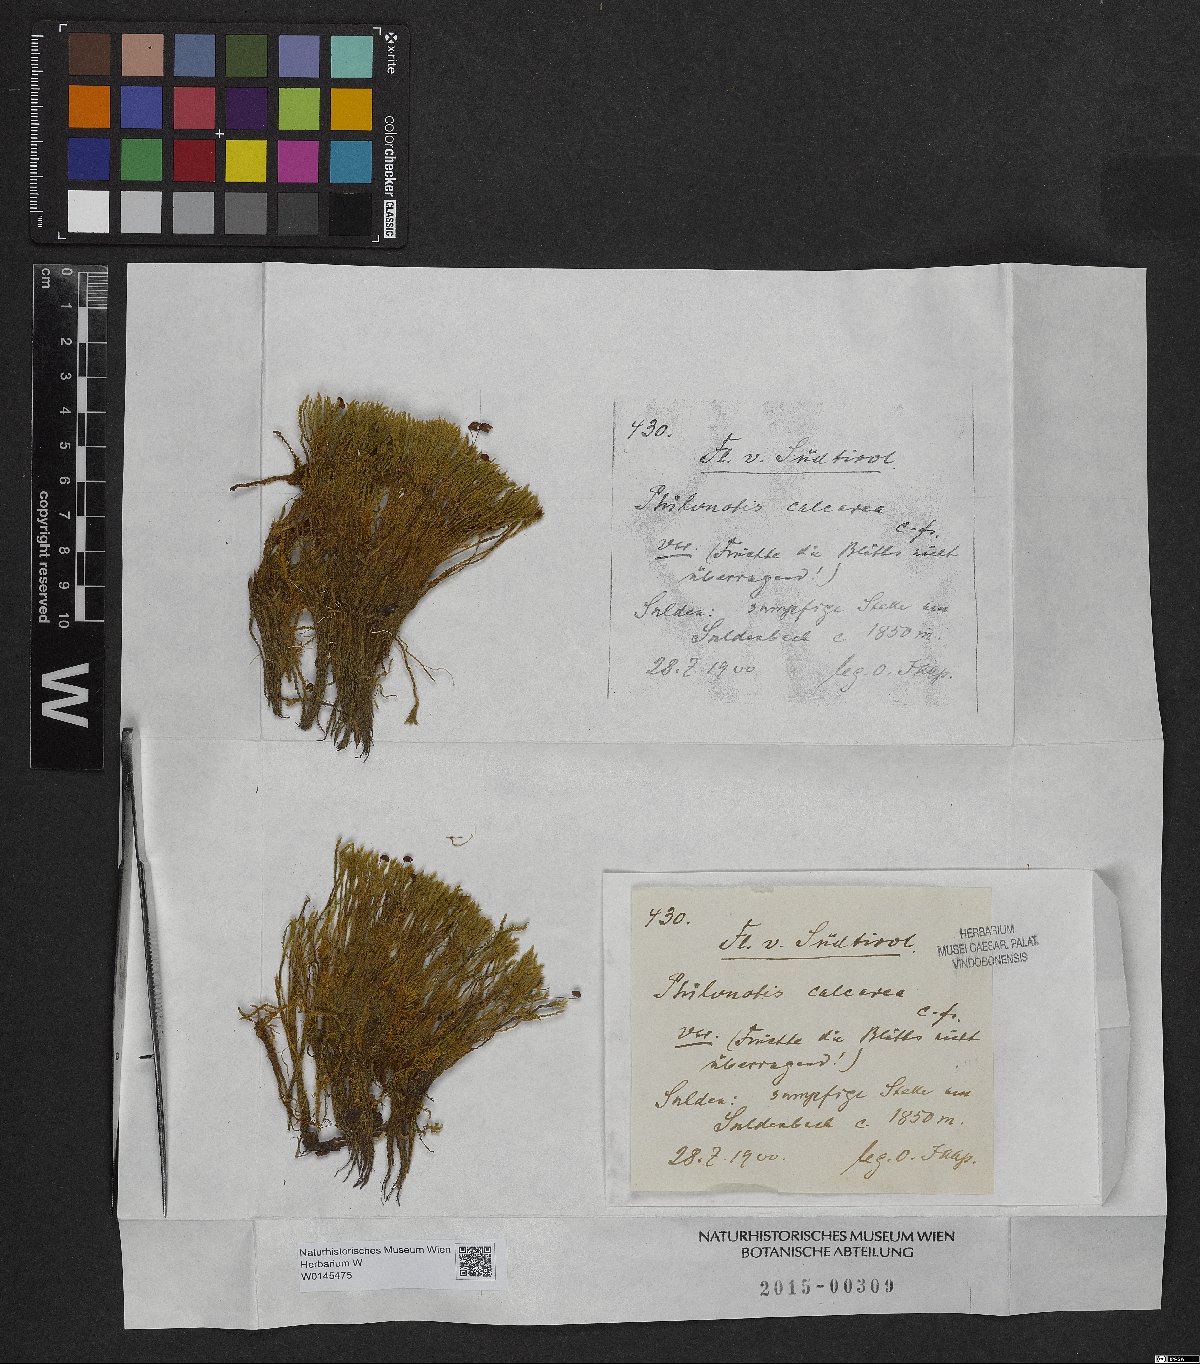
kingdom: Plantae
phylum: Bryophyta
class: Bryopsida
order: Bartramiales
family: Bartramiaceae
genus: Philonotis
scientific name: Philonotis calcarea
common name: Thick-nerved apple-moss
